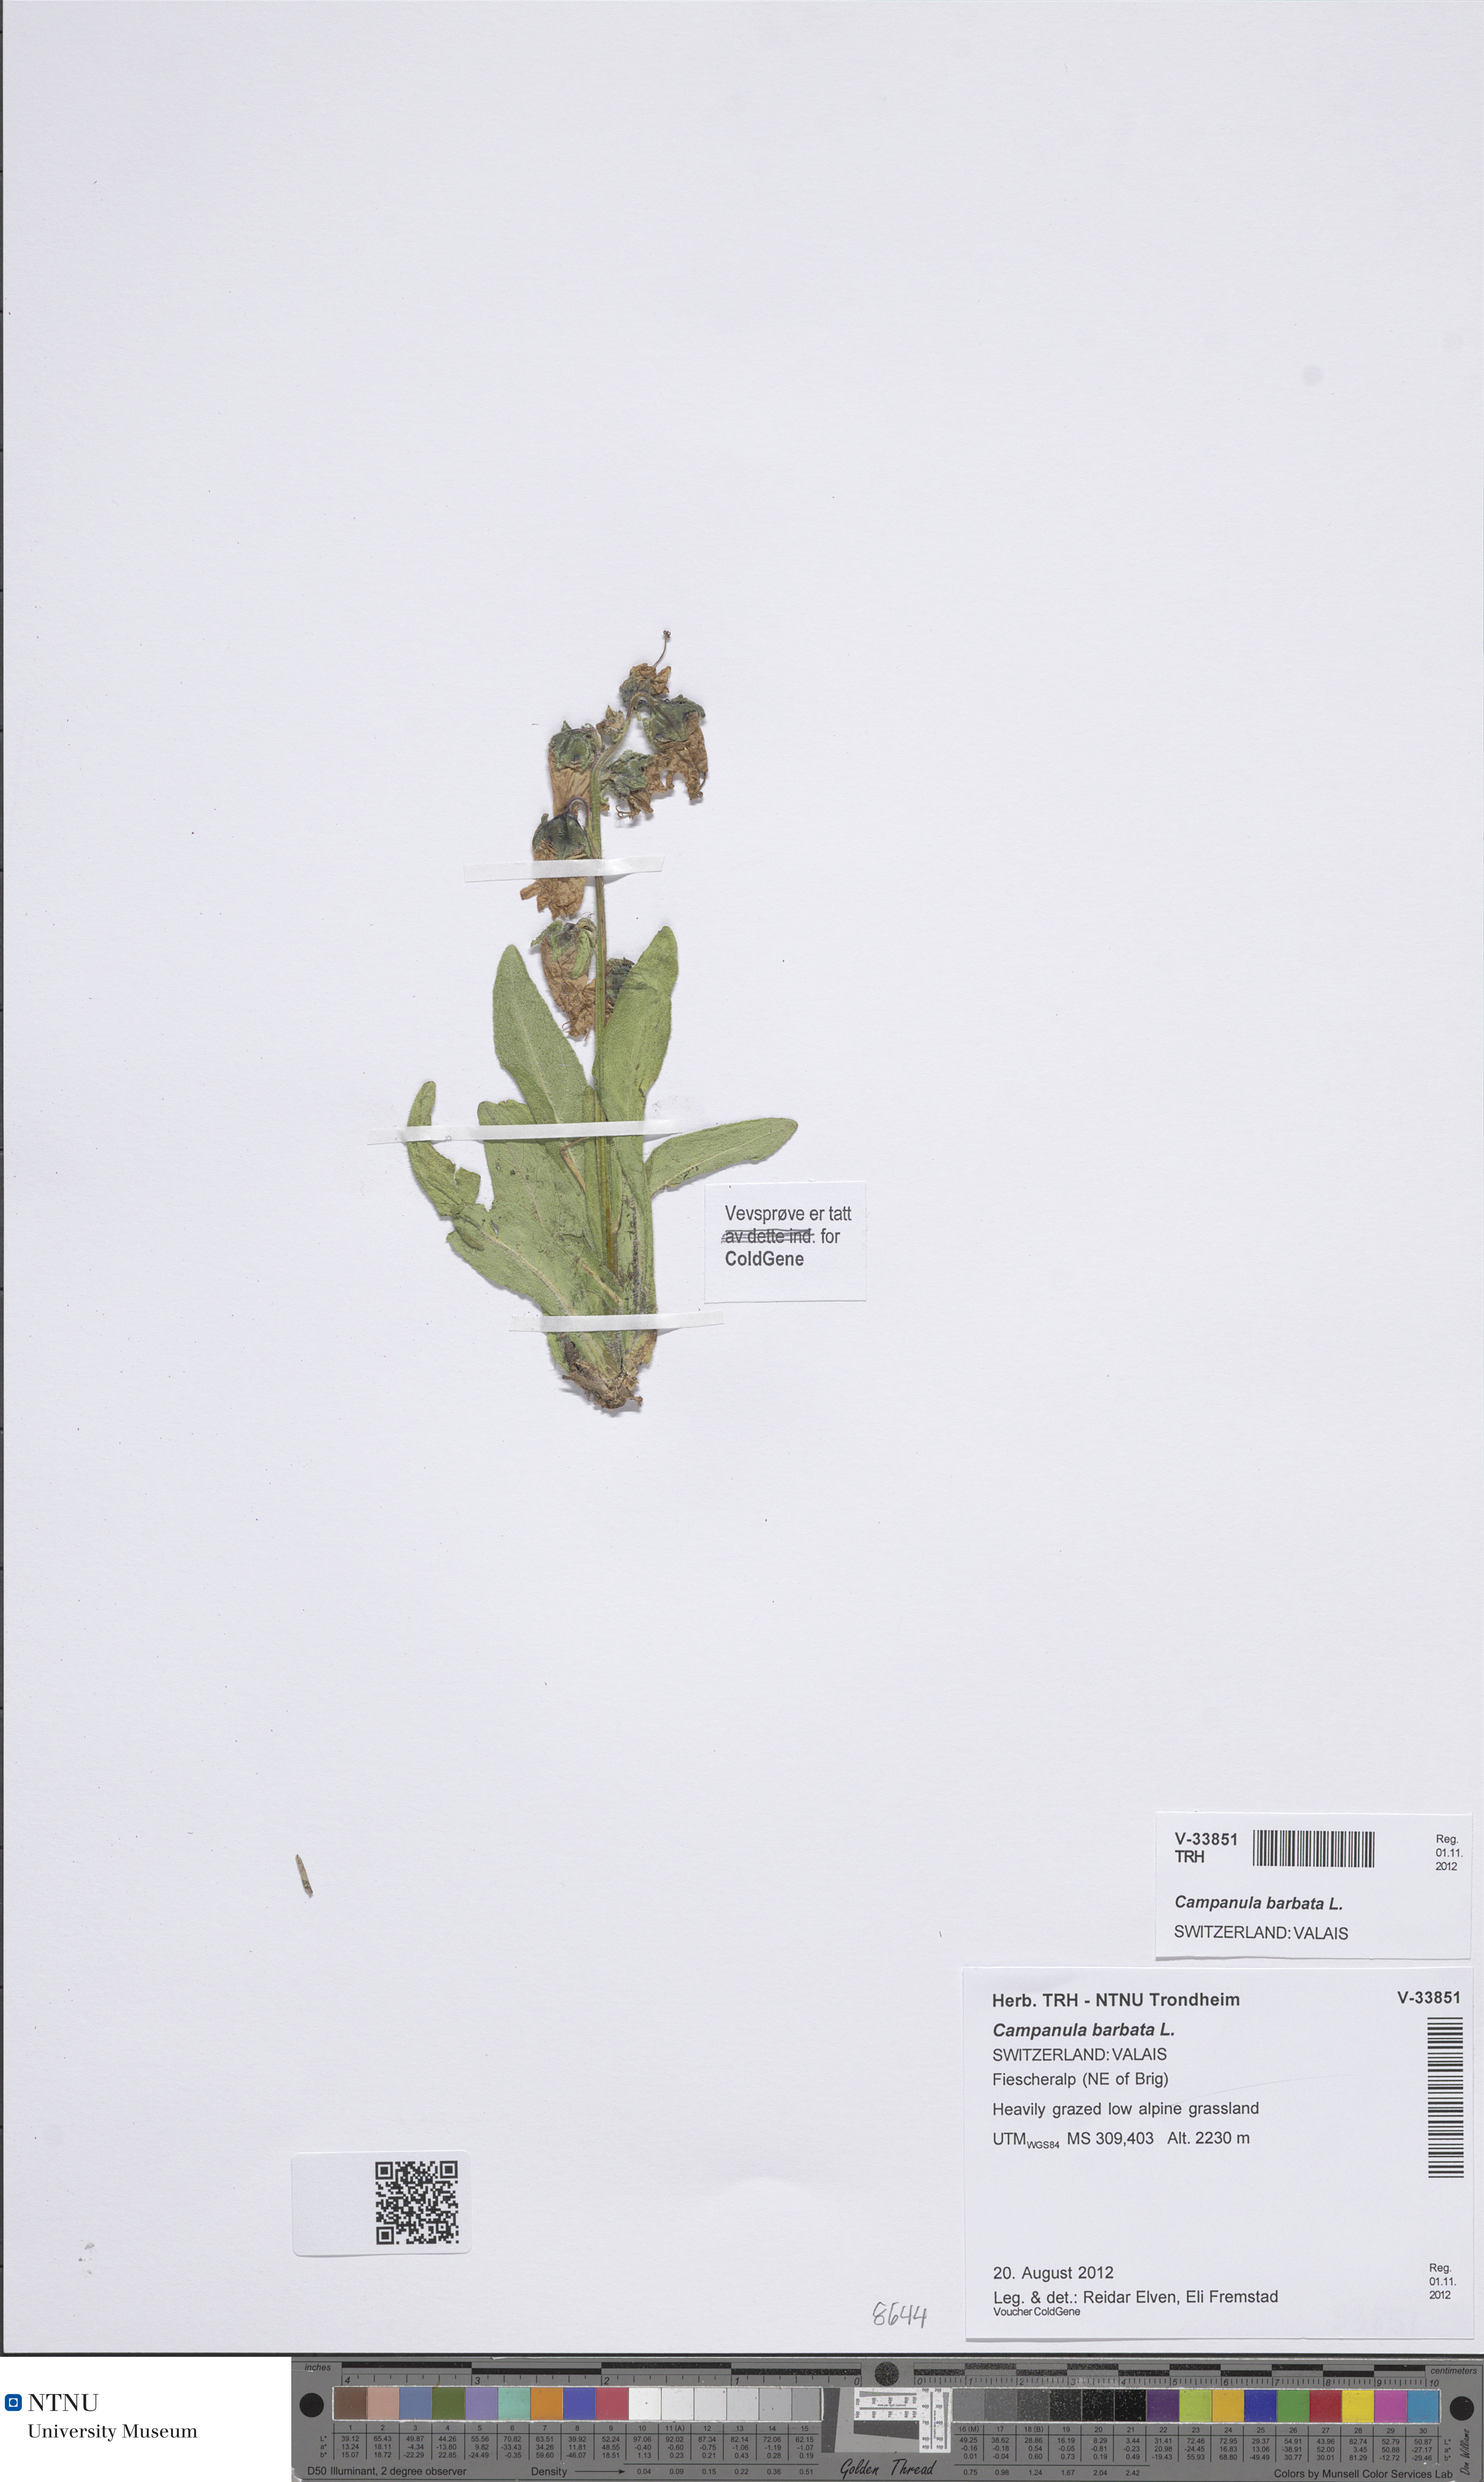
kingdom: Plantae
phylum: Tracheophyta
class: Magnoliopsida
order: Asterales
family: Campanulaceae
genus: Campanula
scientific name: Campanula barbata
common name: Bearded bellflower
